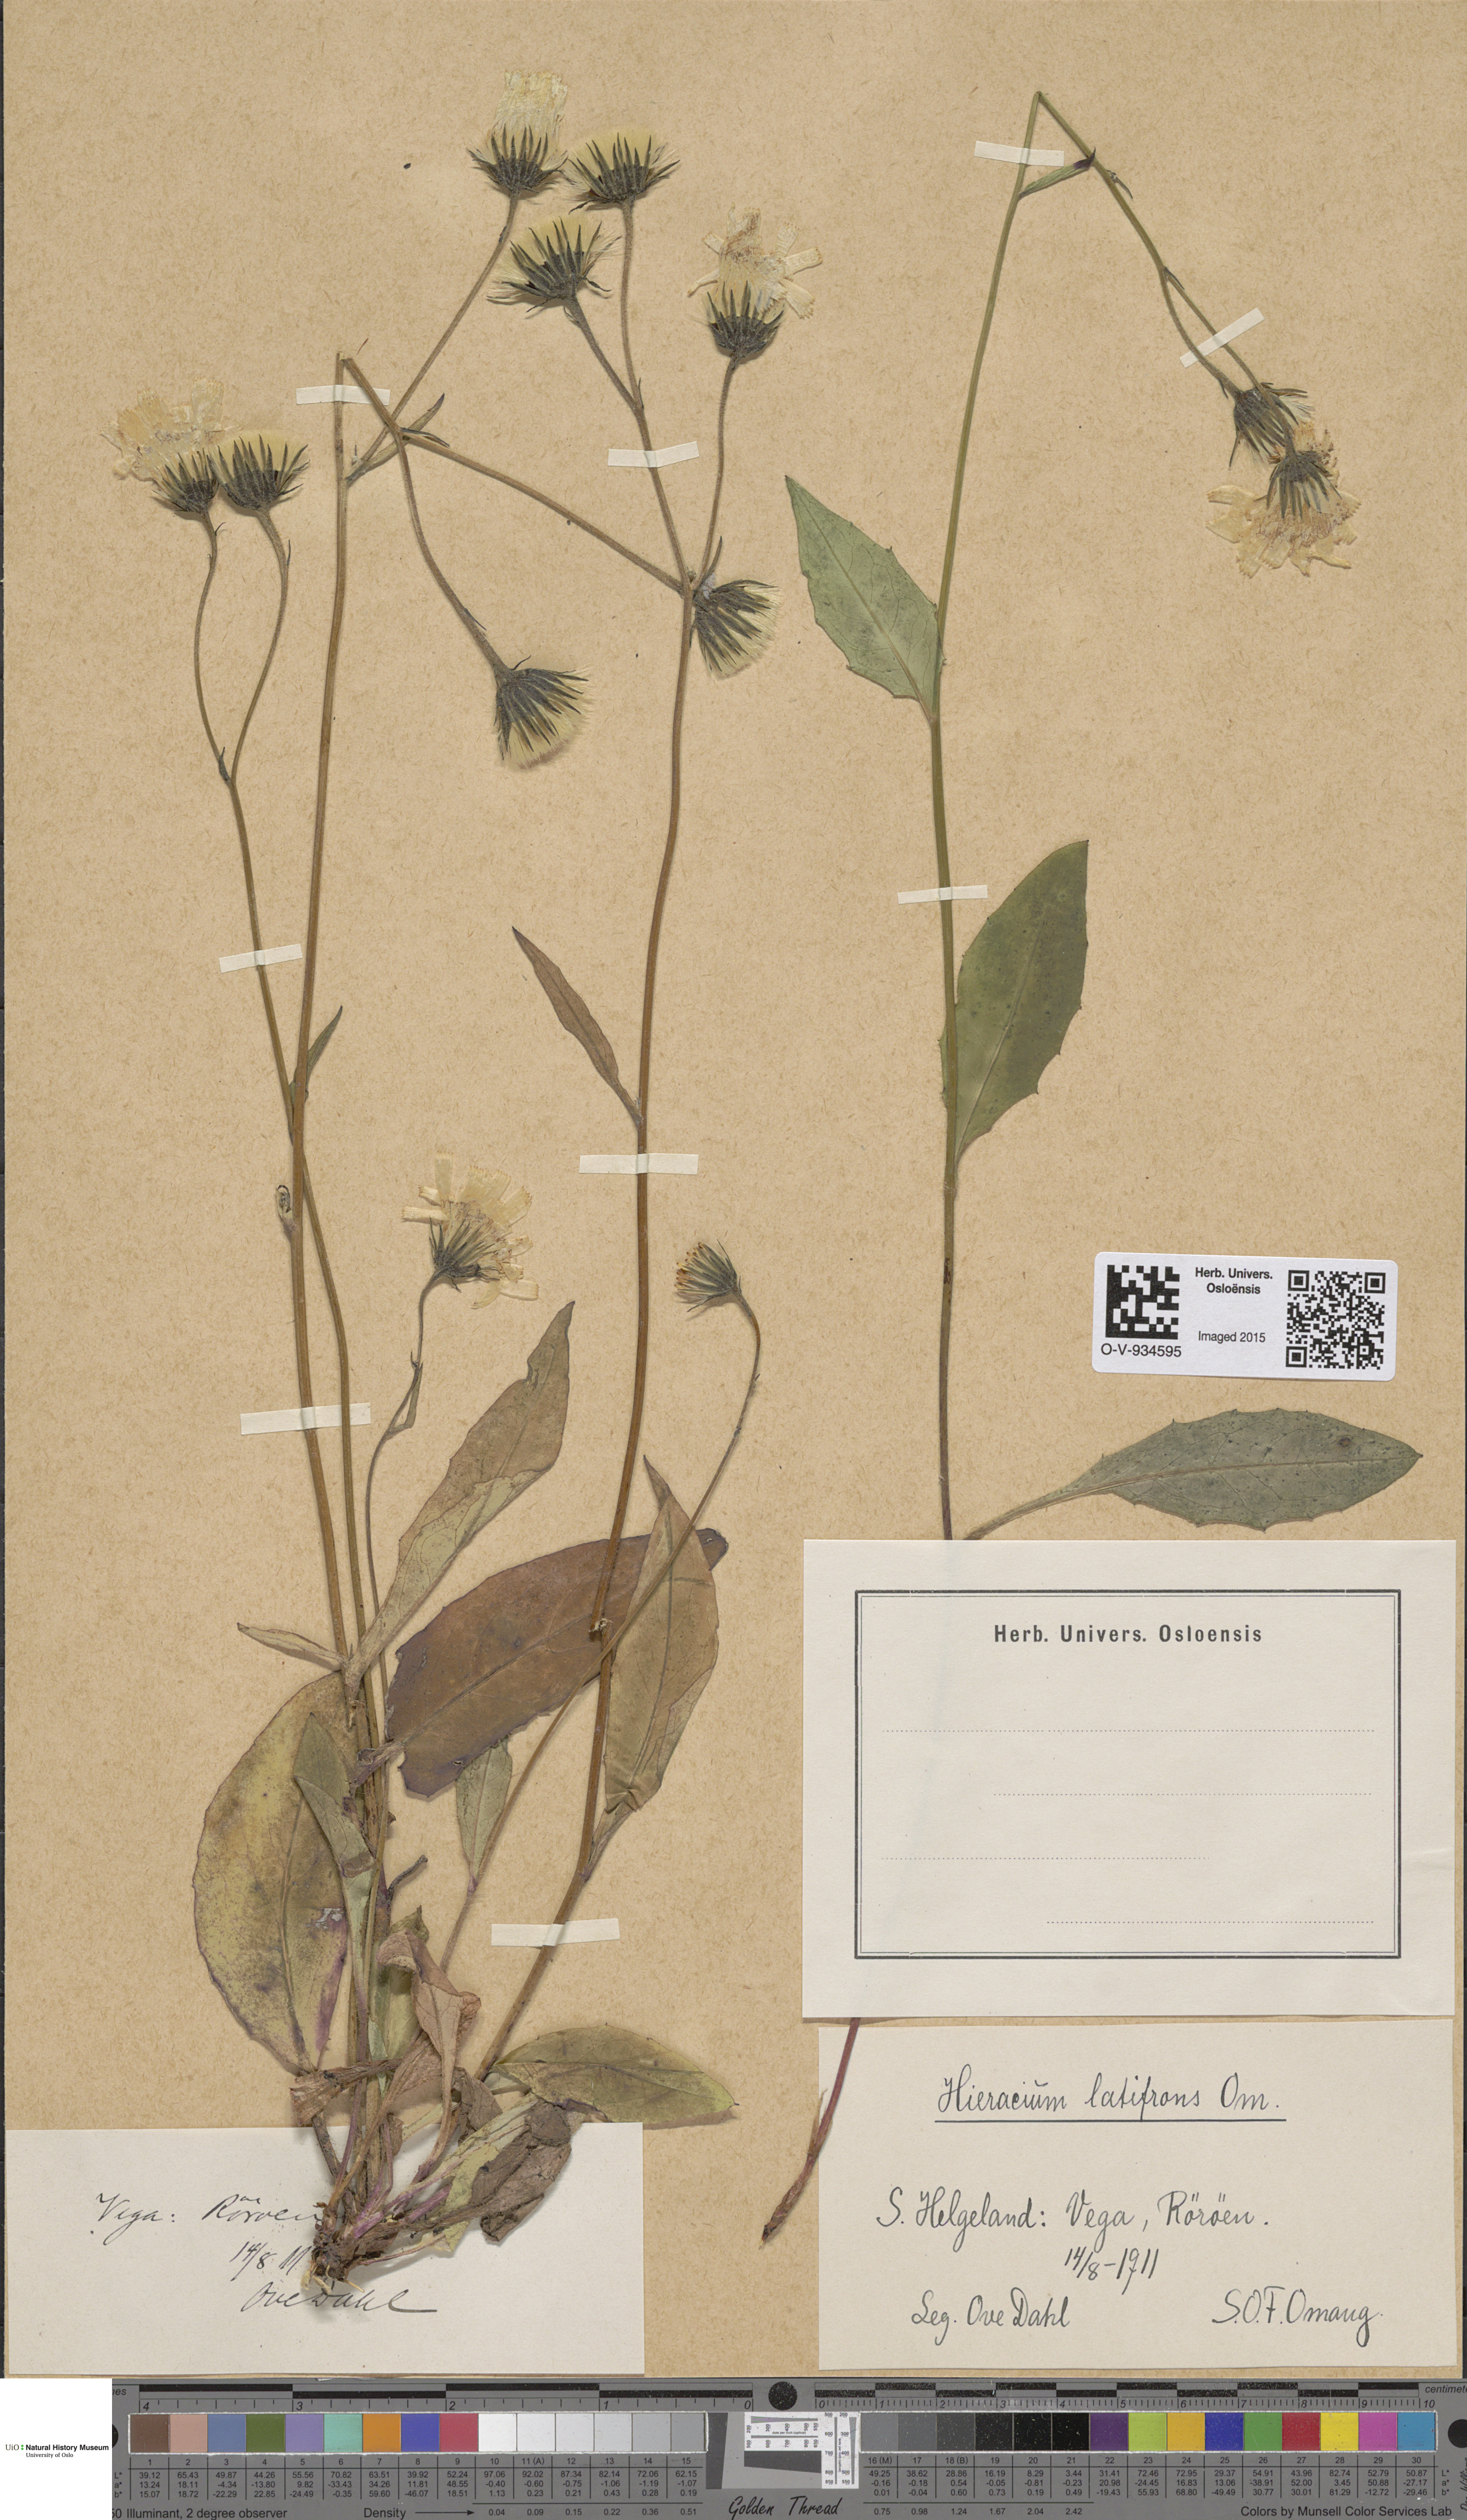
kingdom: Plantae
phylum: Tracheophyta
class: Magnoliopsida
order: Asterales
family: Asteraceae
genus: Hieracium
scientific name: Hieracium saxifragum
